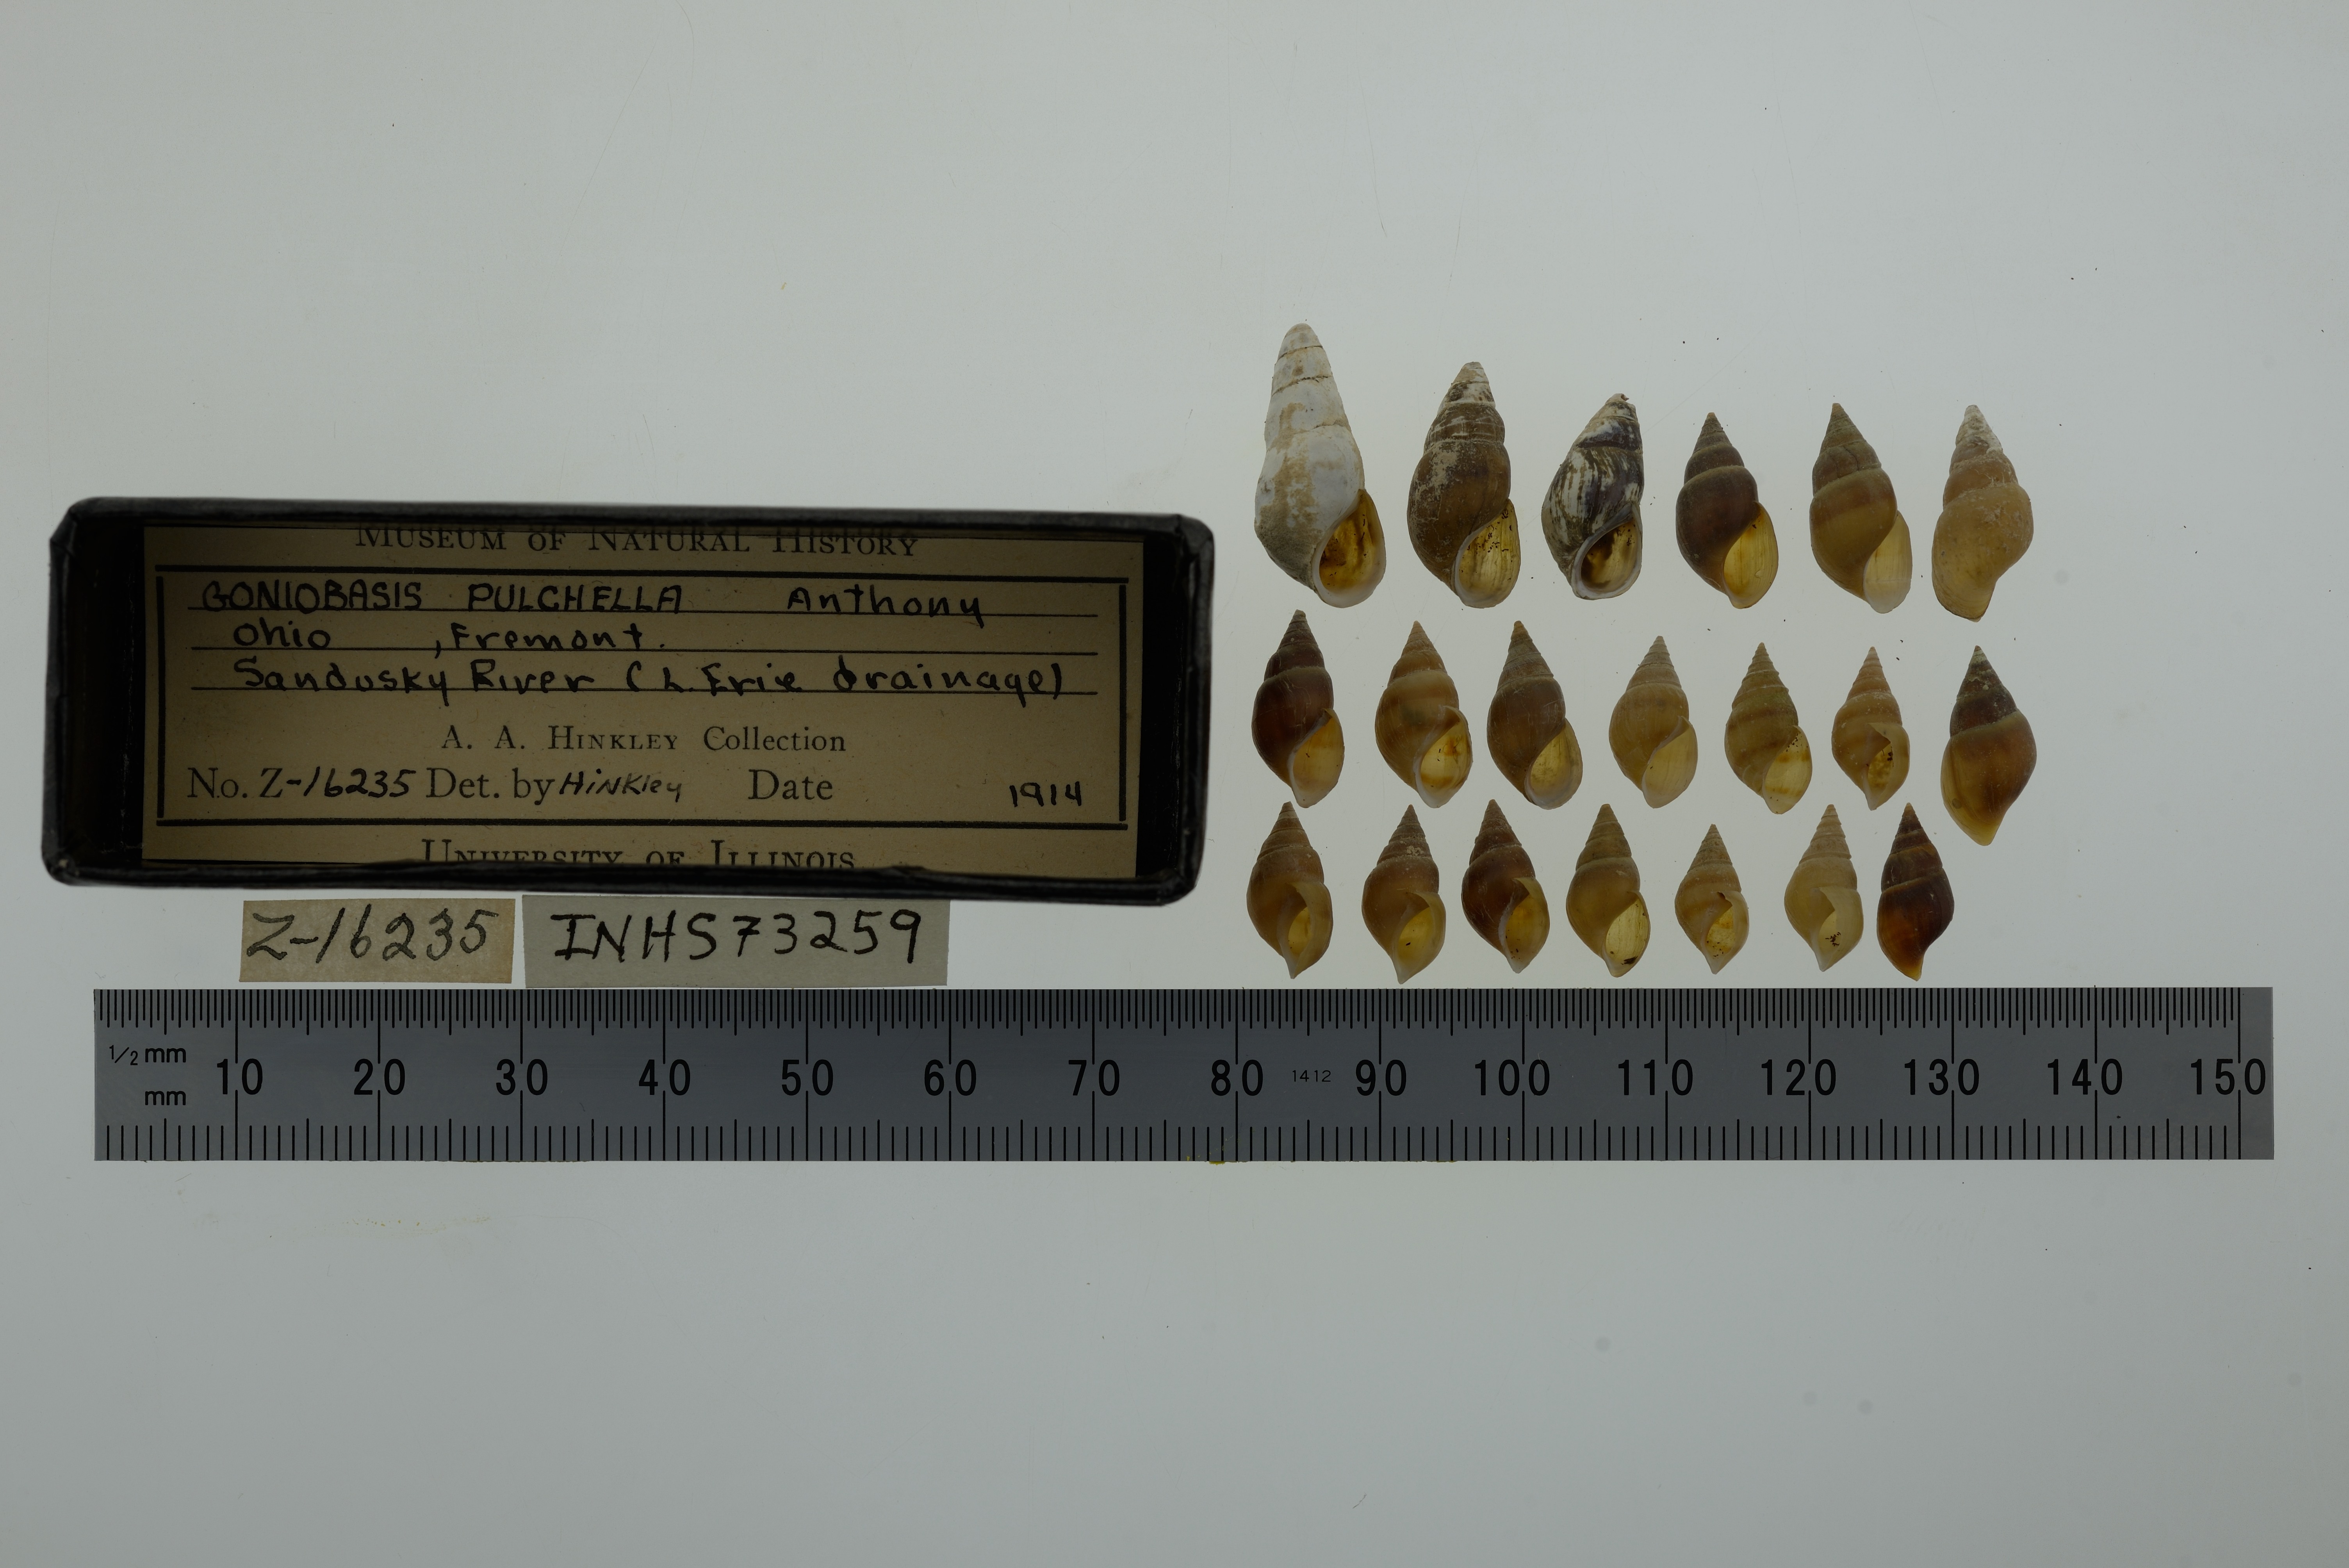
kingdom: Animalia
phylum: Mollusca
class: Gastropoda
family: Pleuroceridae
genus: Elimia
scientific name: Elimia semicarinata
